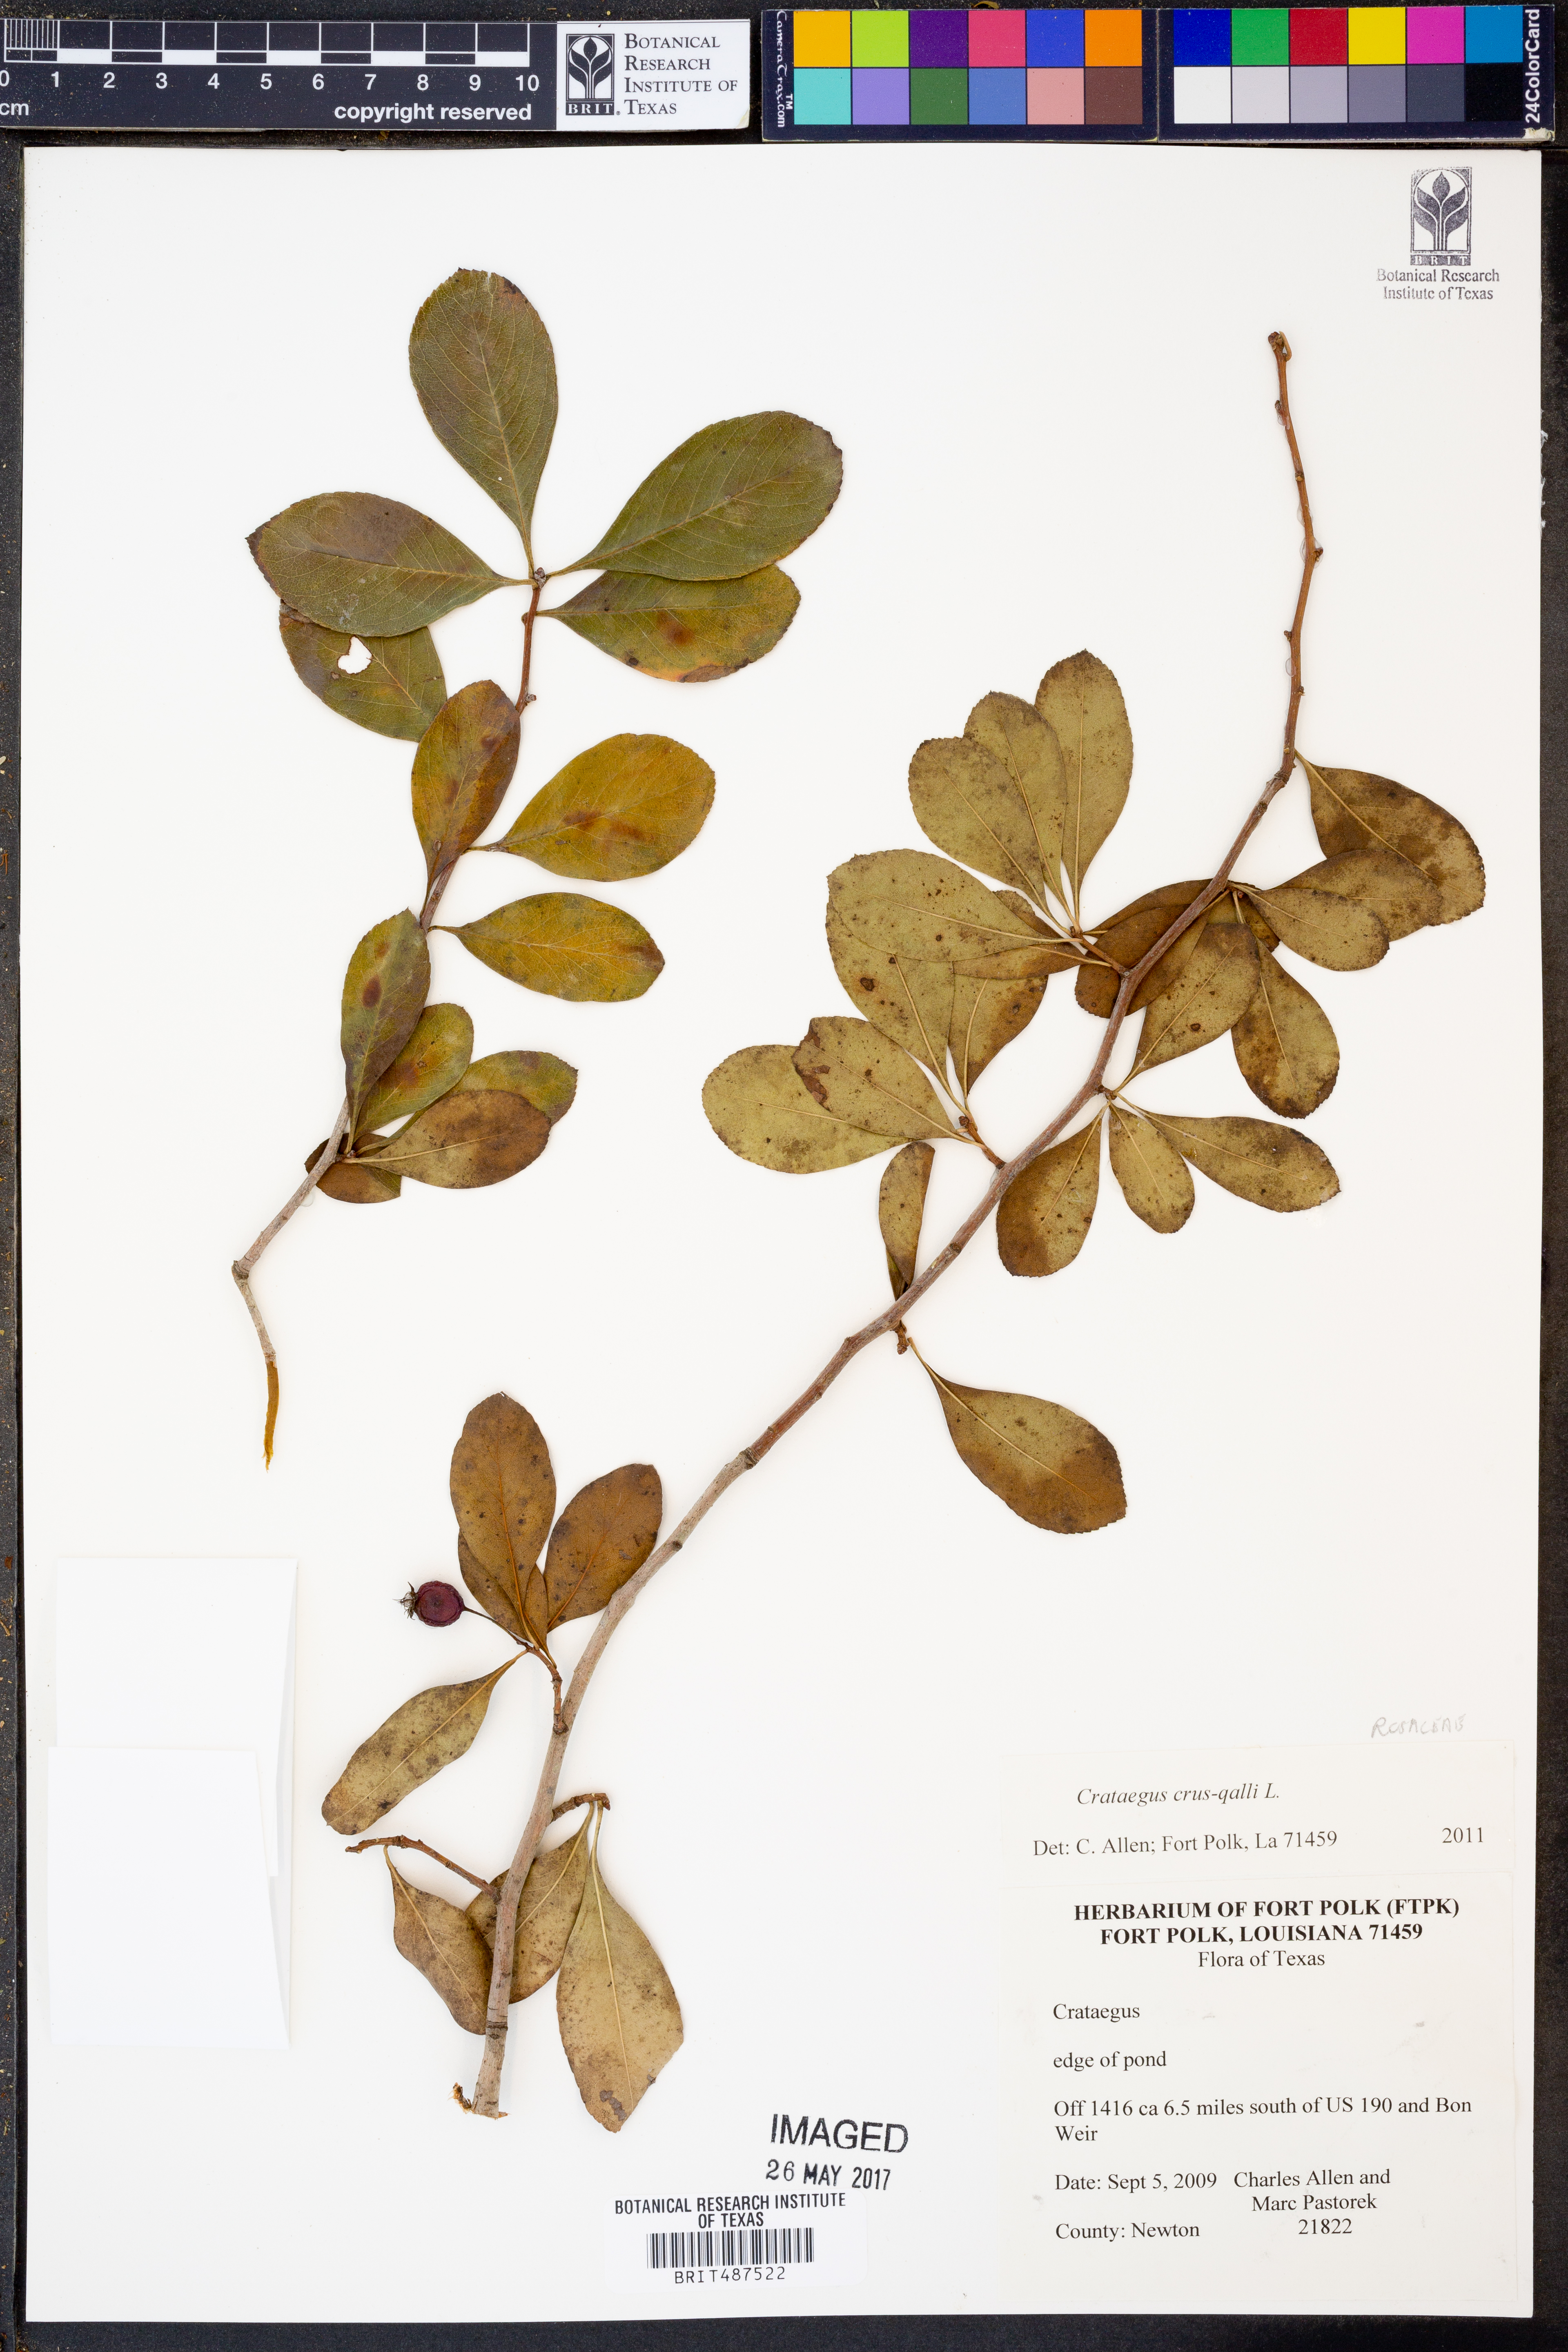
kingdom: Plantae
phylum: Tracheophyta
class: Magnoliopsida
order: Rosales
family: Rosaceae
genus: Crataegus
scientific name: Crataegus crus-galli
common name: Cockspurthorn
